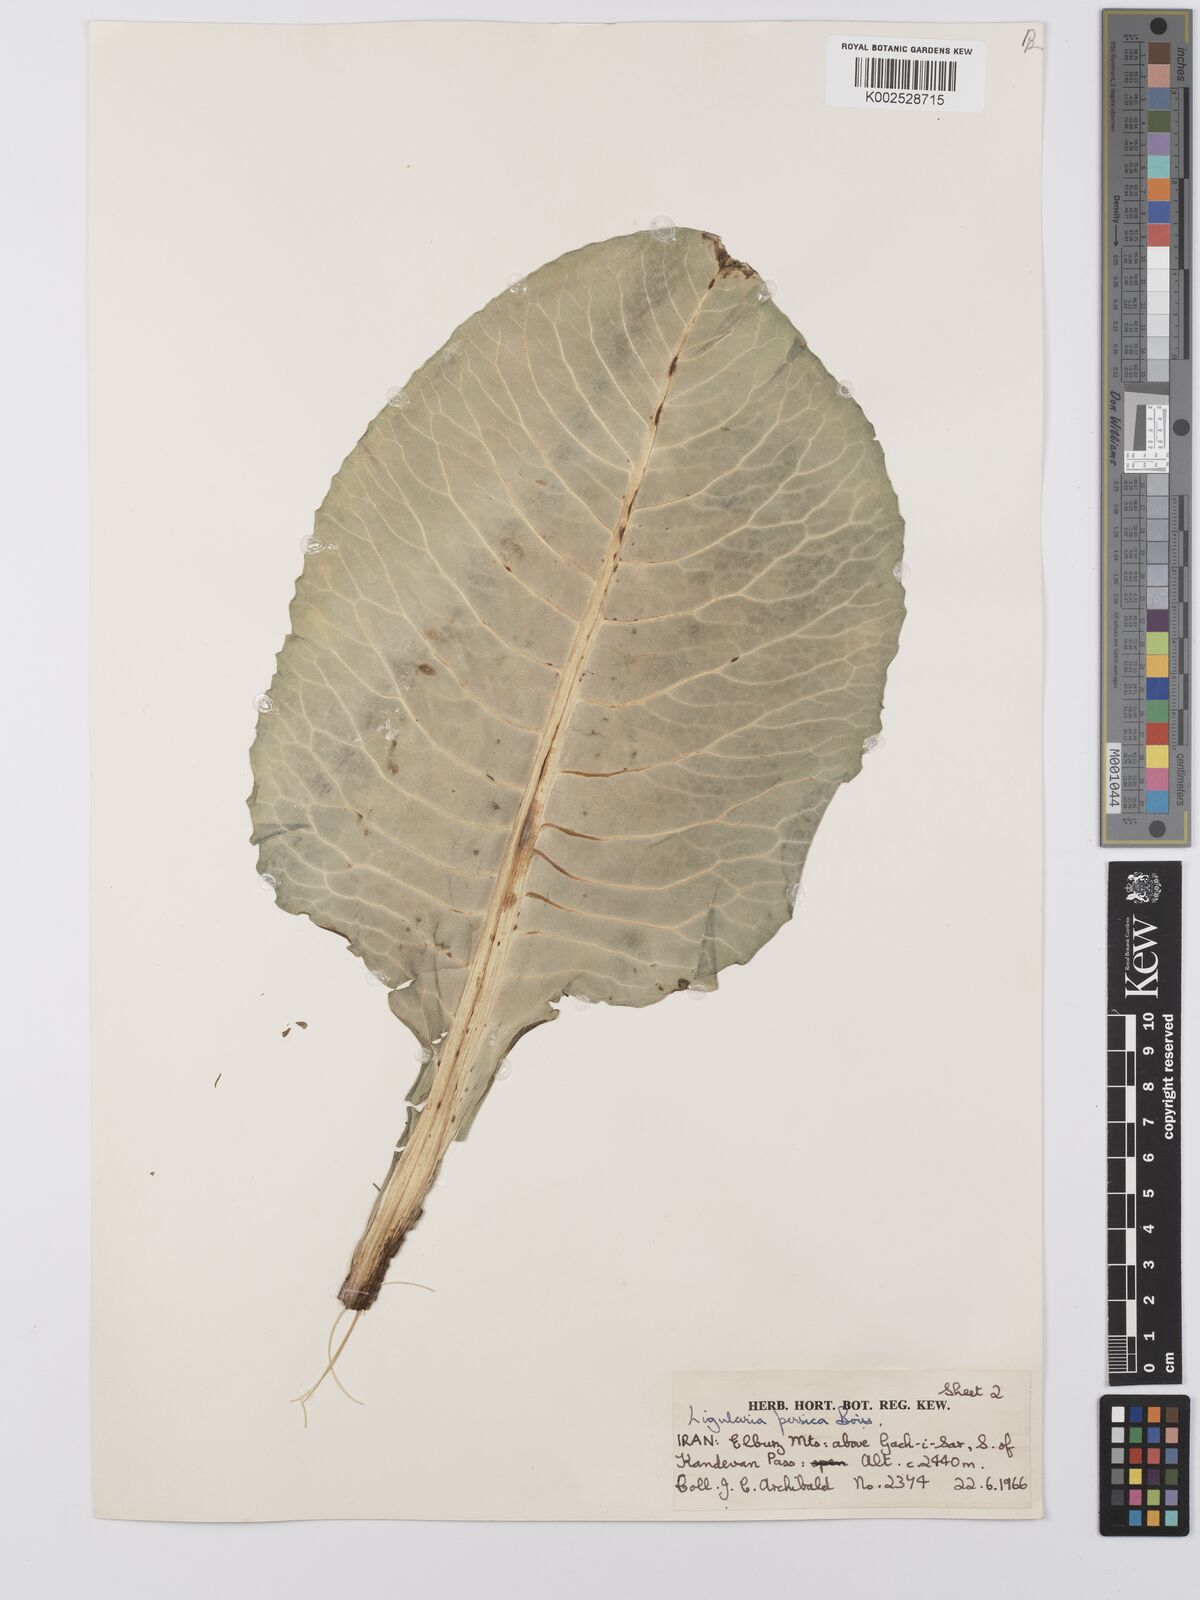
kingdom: Plantae
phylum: Tracheophyta
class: Magnoliopsida
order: Asterales
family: Asteraceae
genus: Dolichorrhiza
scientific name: Dolichorrhiza persica
